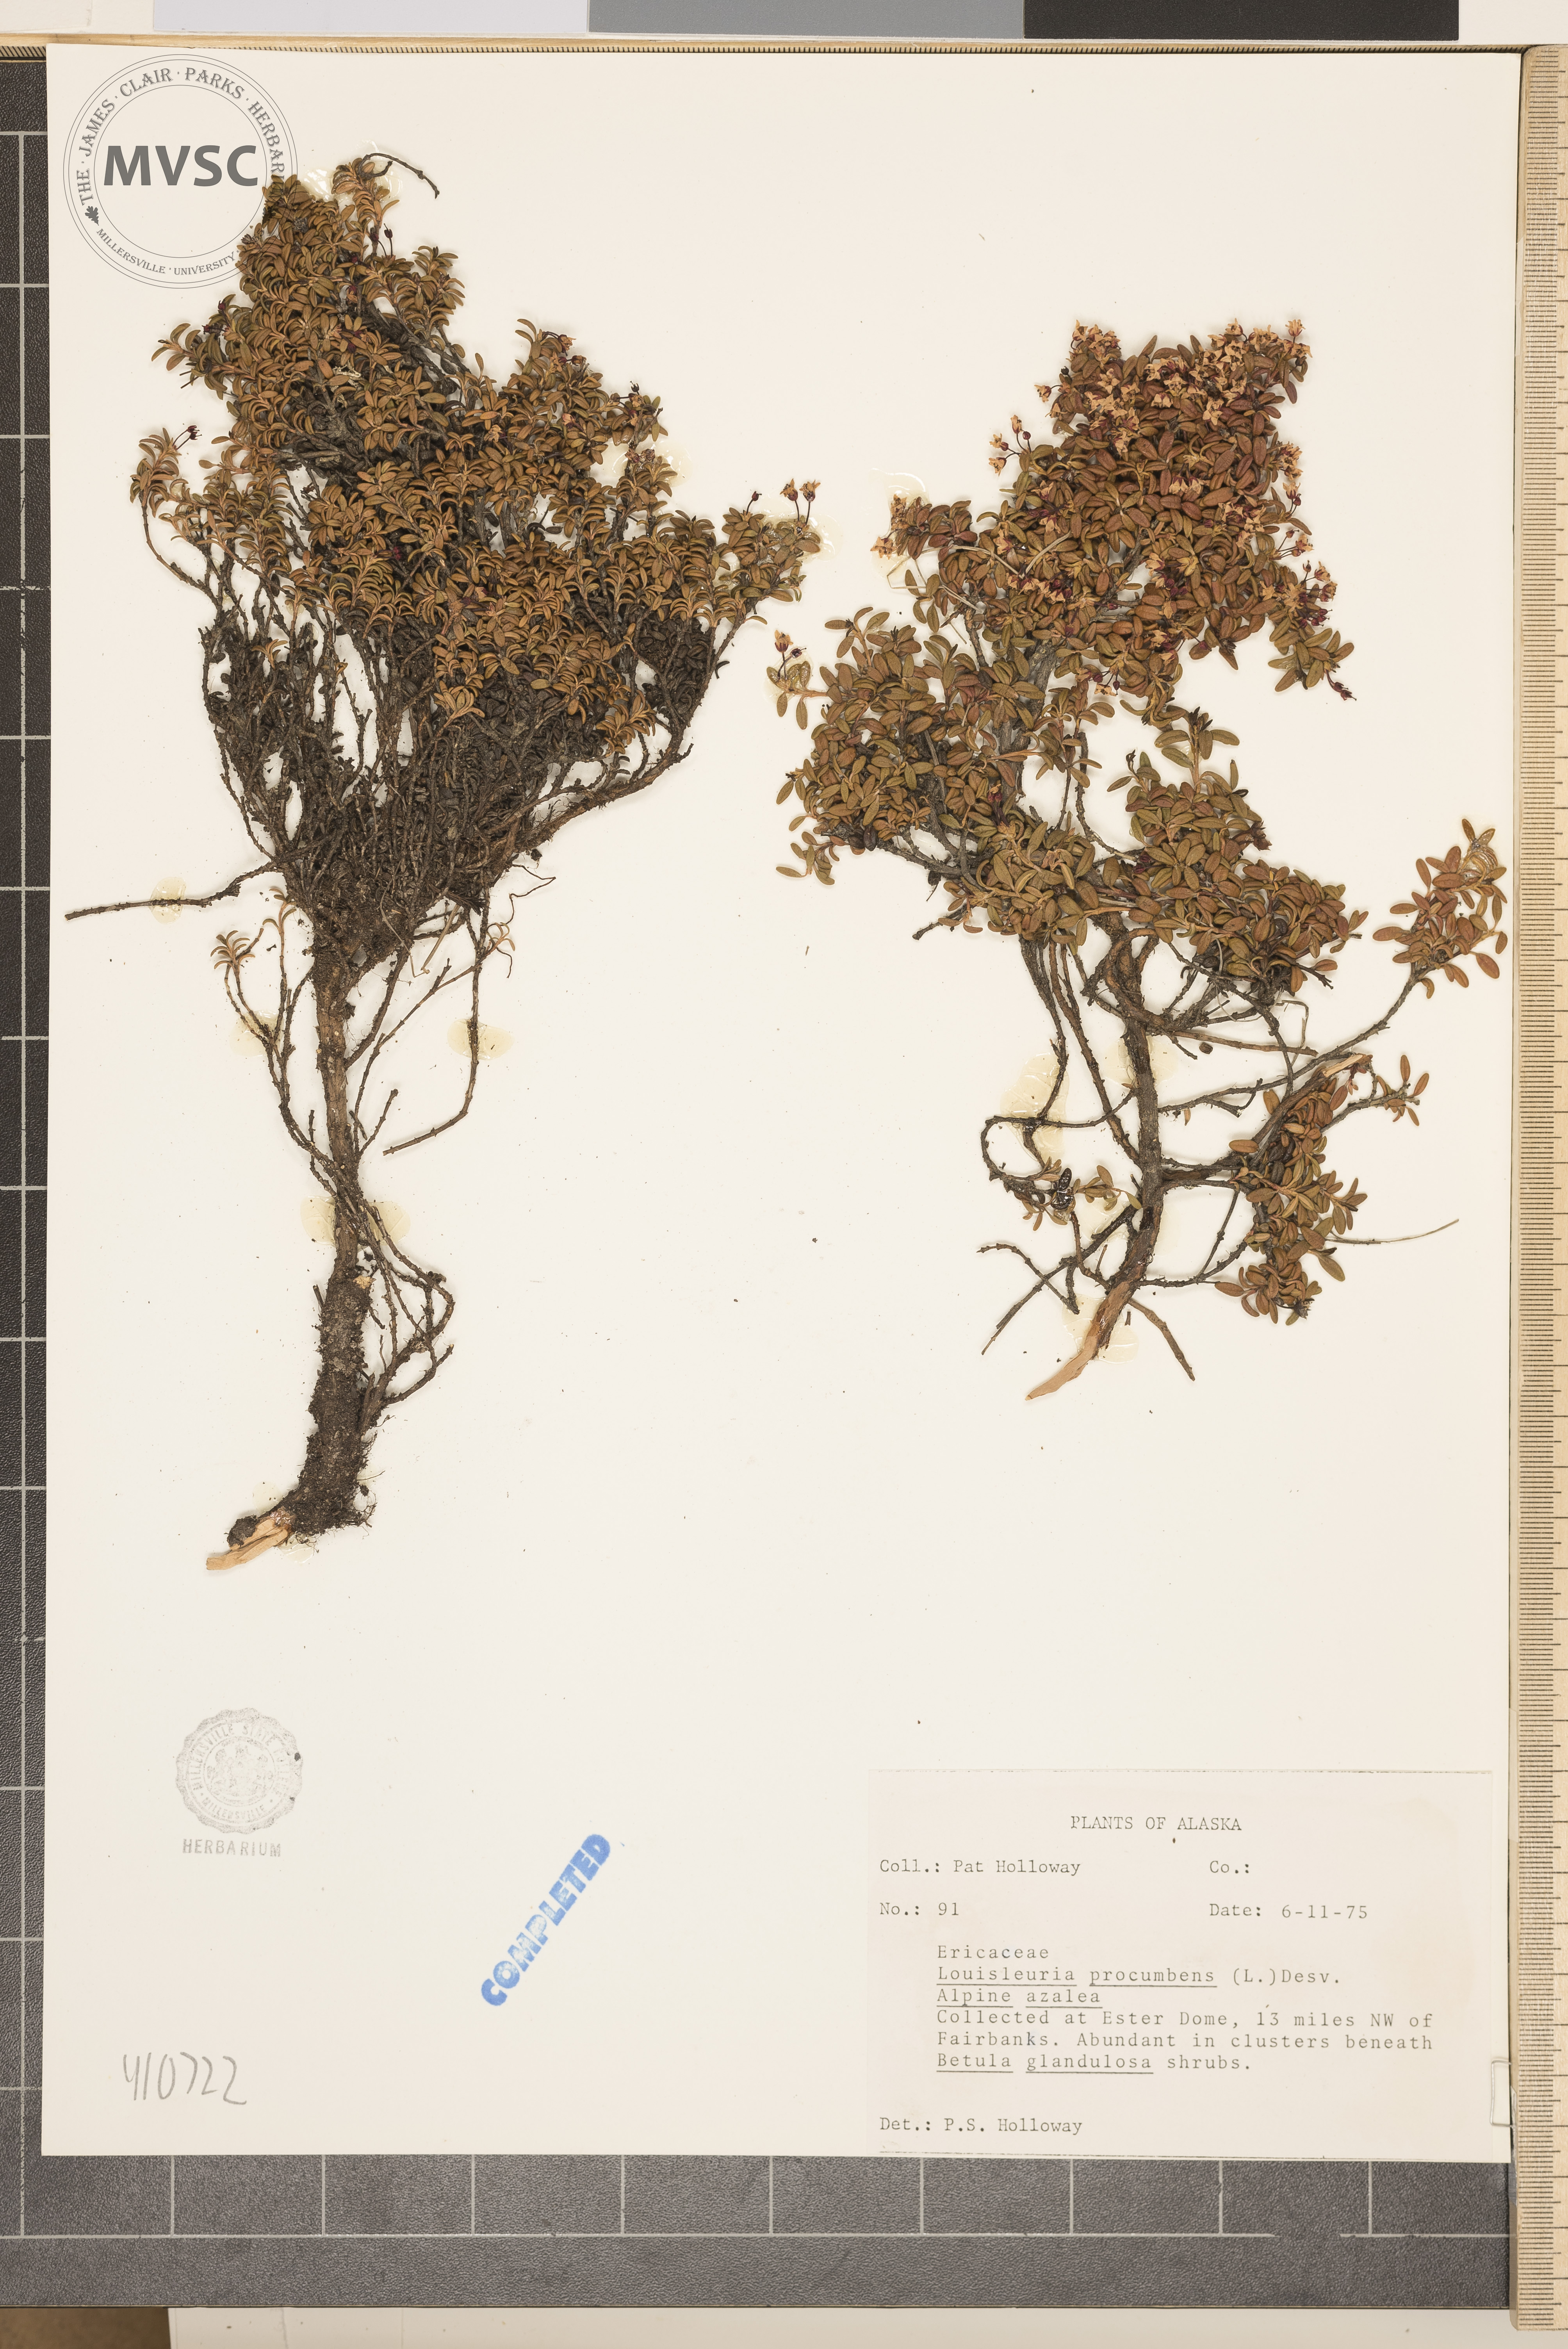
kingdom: Plantae
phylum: Tracheophyta
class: Magnoliopsida
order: Ericales
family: Ericaceae
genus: Kalmia
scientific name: Kalmia procumbens
